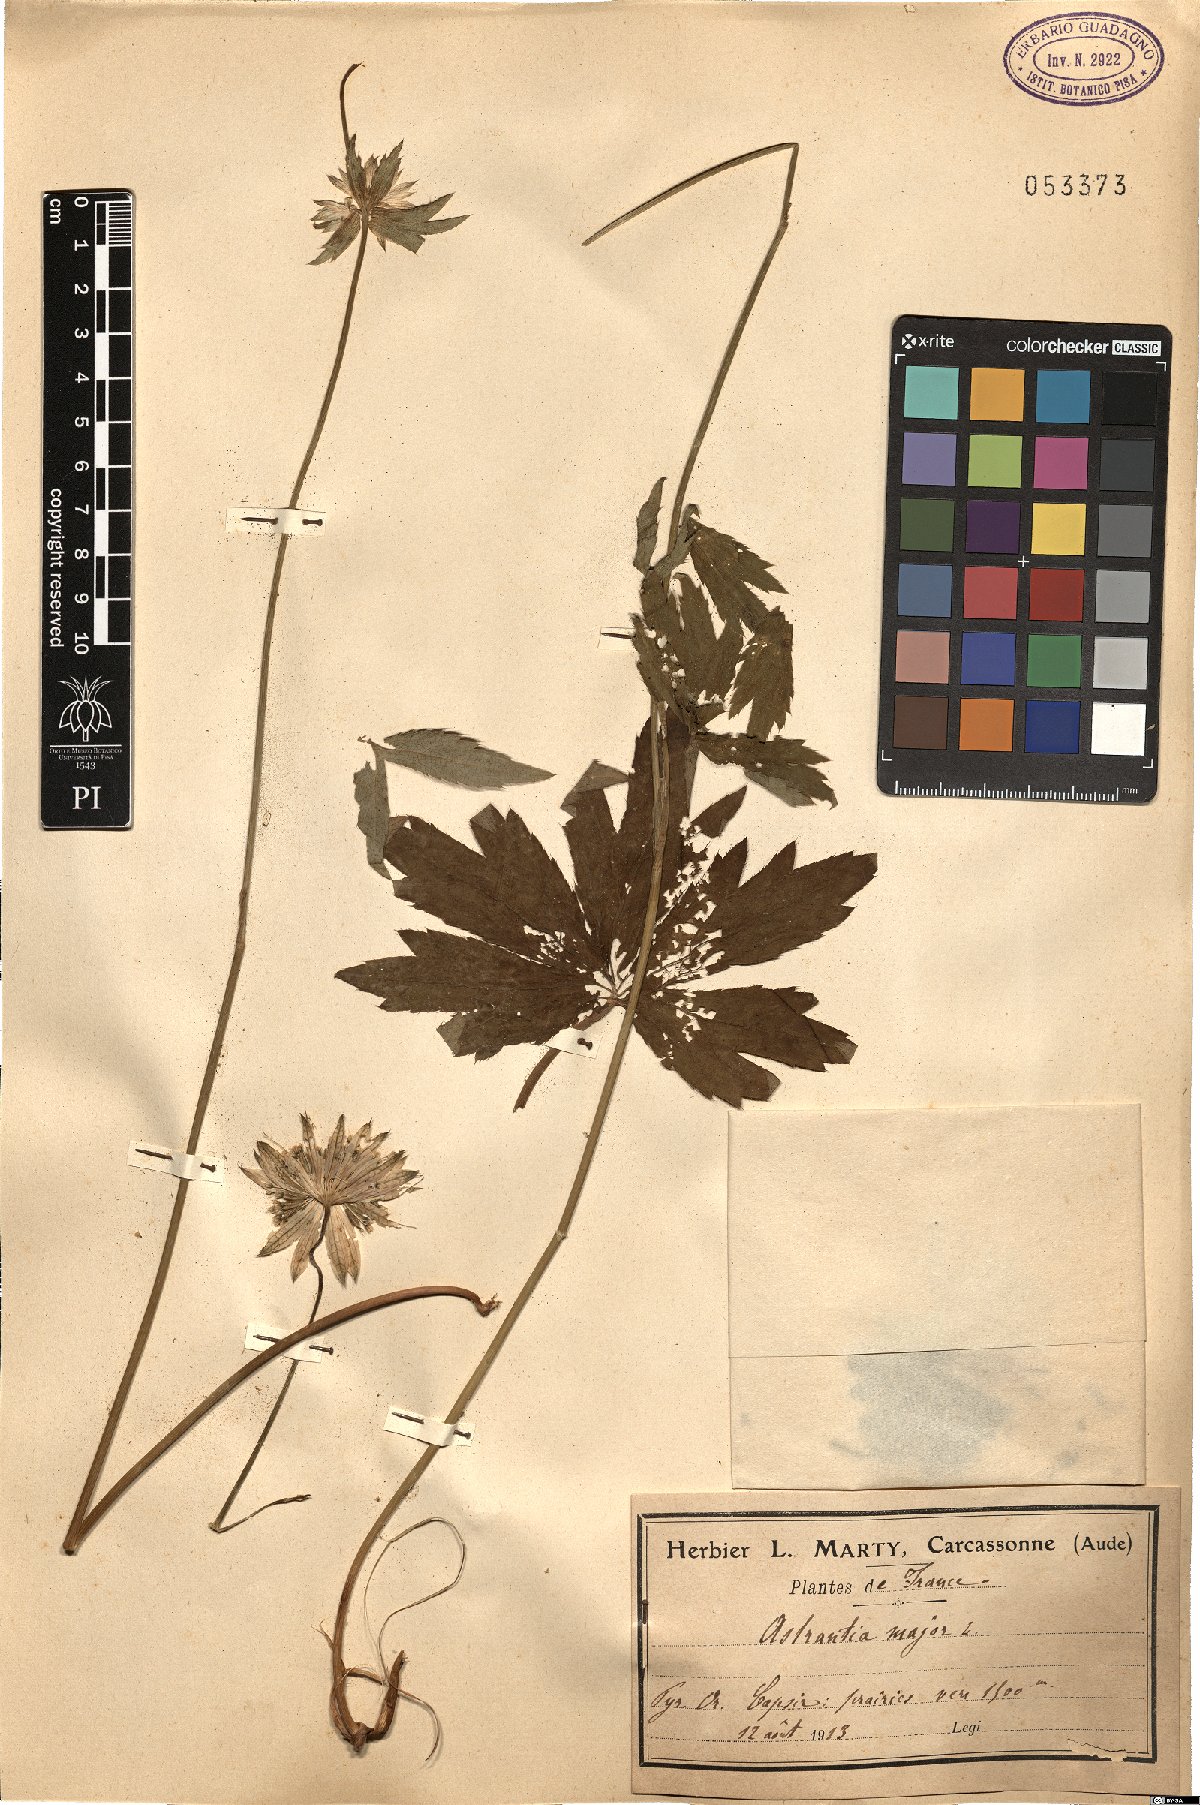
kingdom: Plantae
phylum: Tracheophyta
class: Magnoliopsida
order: Apiales
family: Apiaceae
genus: Astrantia
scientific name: Astrantia major
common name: Greater masterwort
